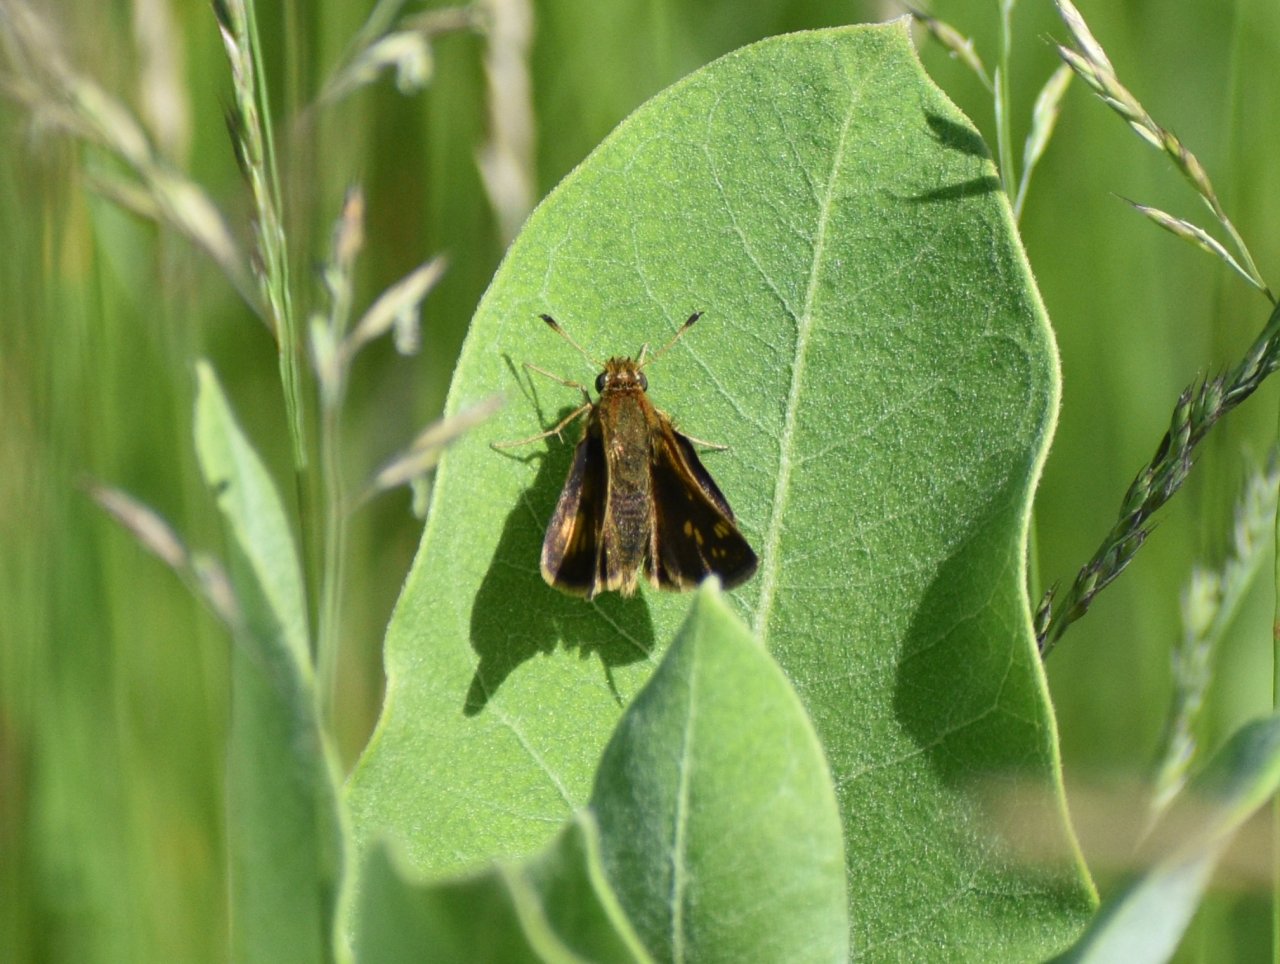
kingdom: Animalia
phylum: Arthropoda
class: Insecta
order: Lepidoptera
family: Hesperiidae
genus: Polites
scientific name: Polites coras
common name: Peck's Skipper
